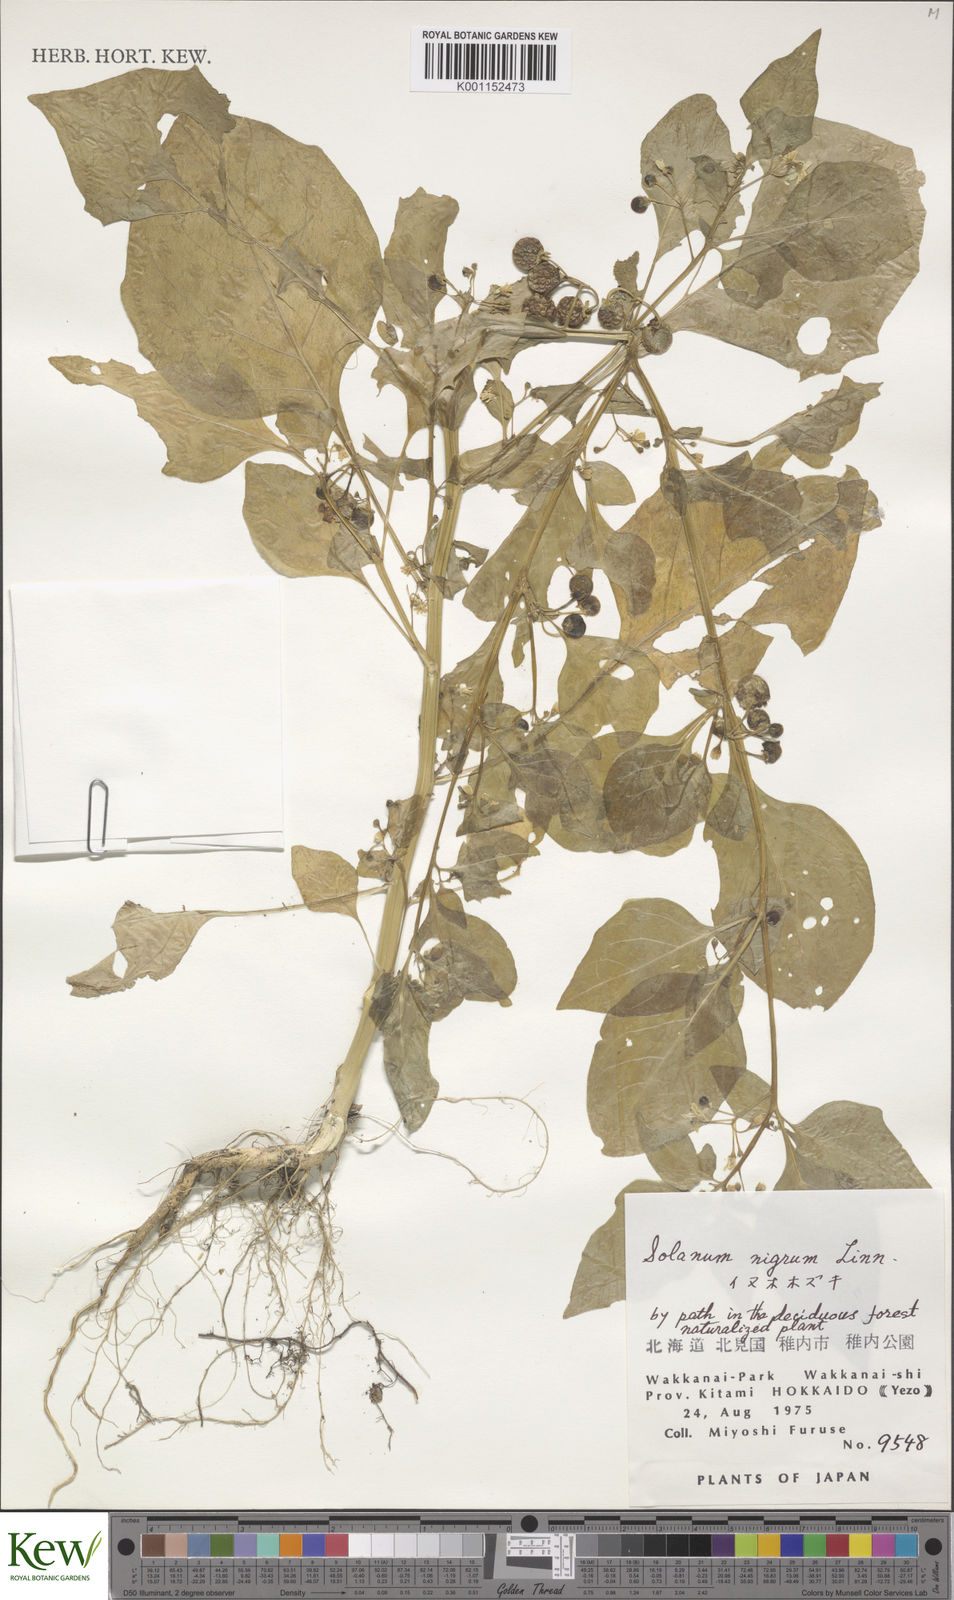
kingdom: Plantae
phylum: Tracheophyta
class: Magnoliopsida
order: Solanales
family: Solanaceae
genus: Solanum
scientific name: Solanum
